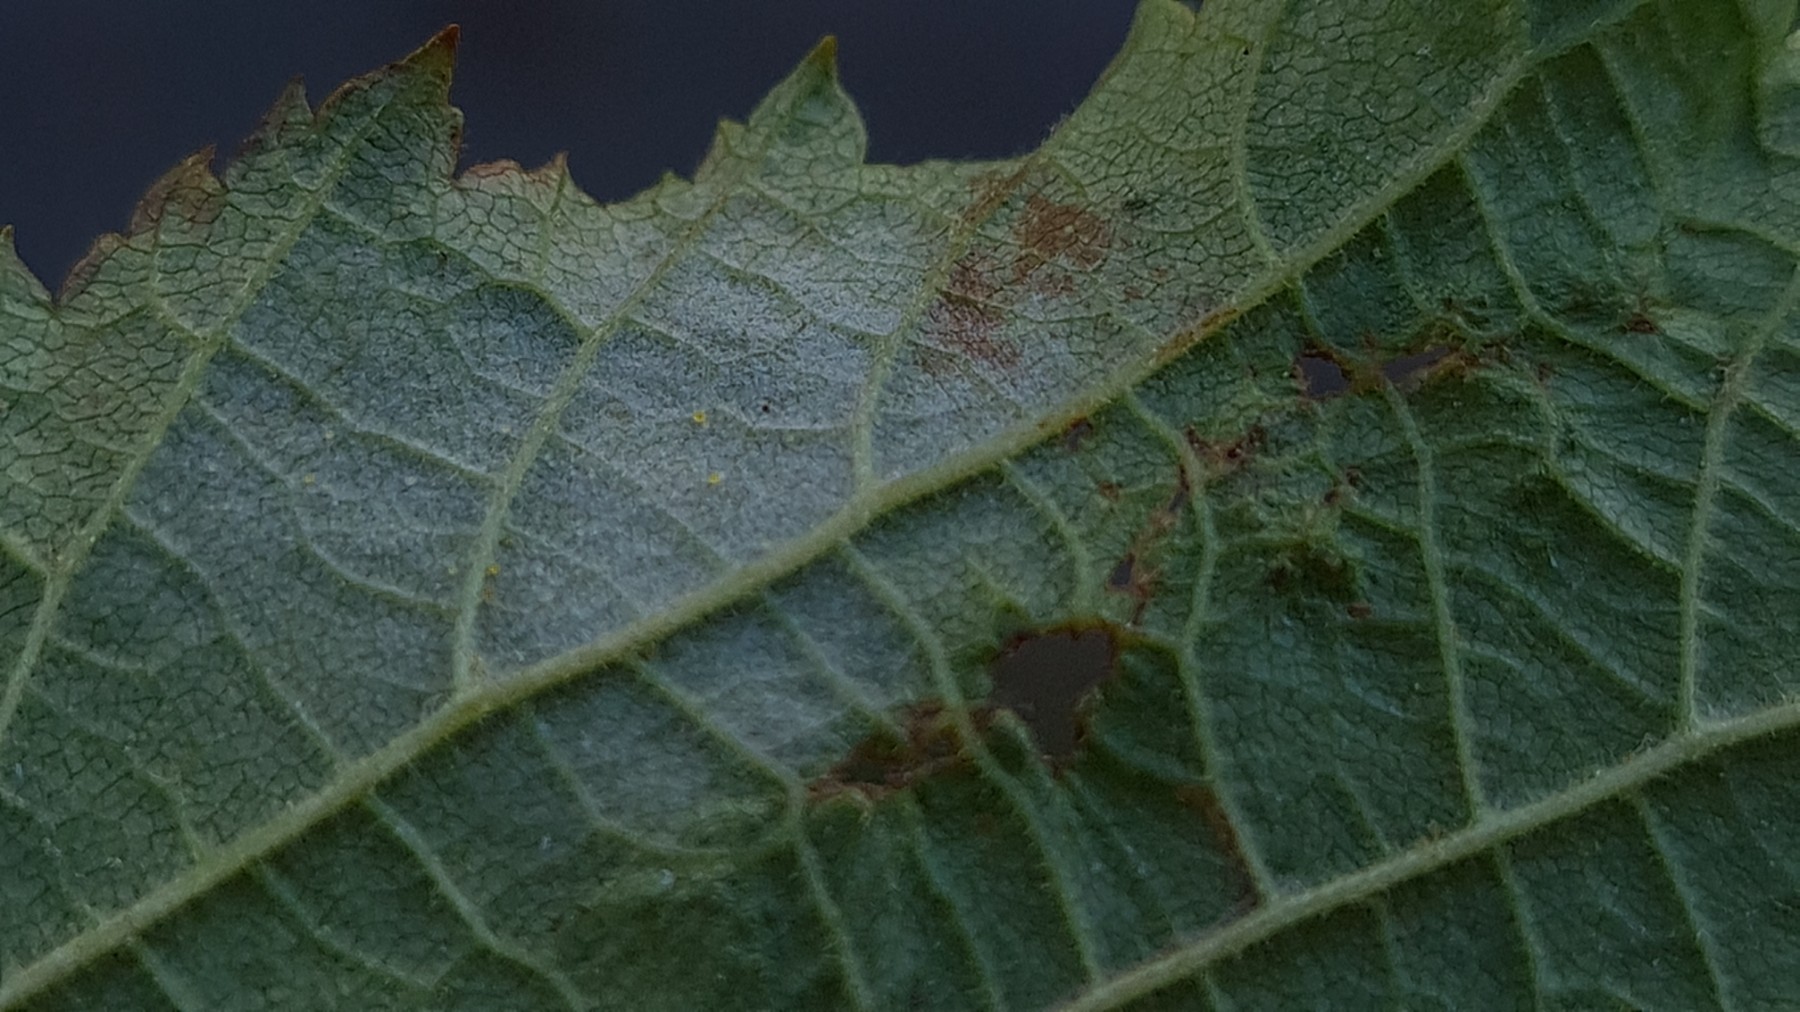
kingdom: Fungi
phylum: Ascomycota
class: Leotiomycetes
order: Helotiales
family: Erysiphaceae
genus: Phyllactinia
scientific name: Phyllactinia guttata
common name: hassel-meldug
